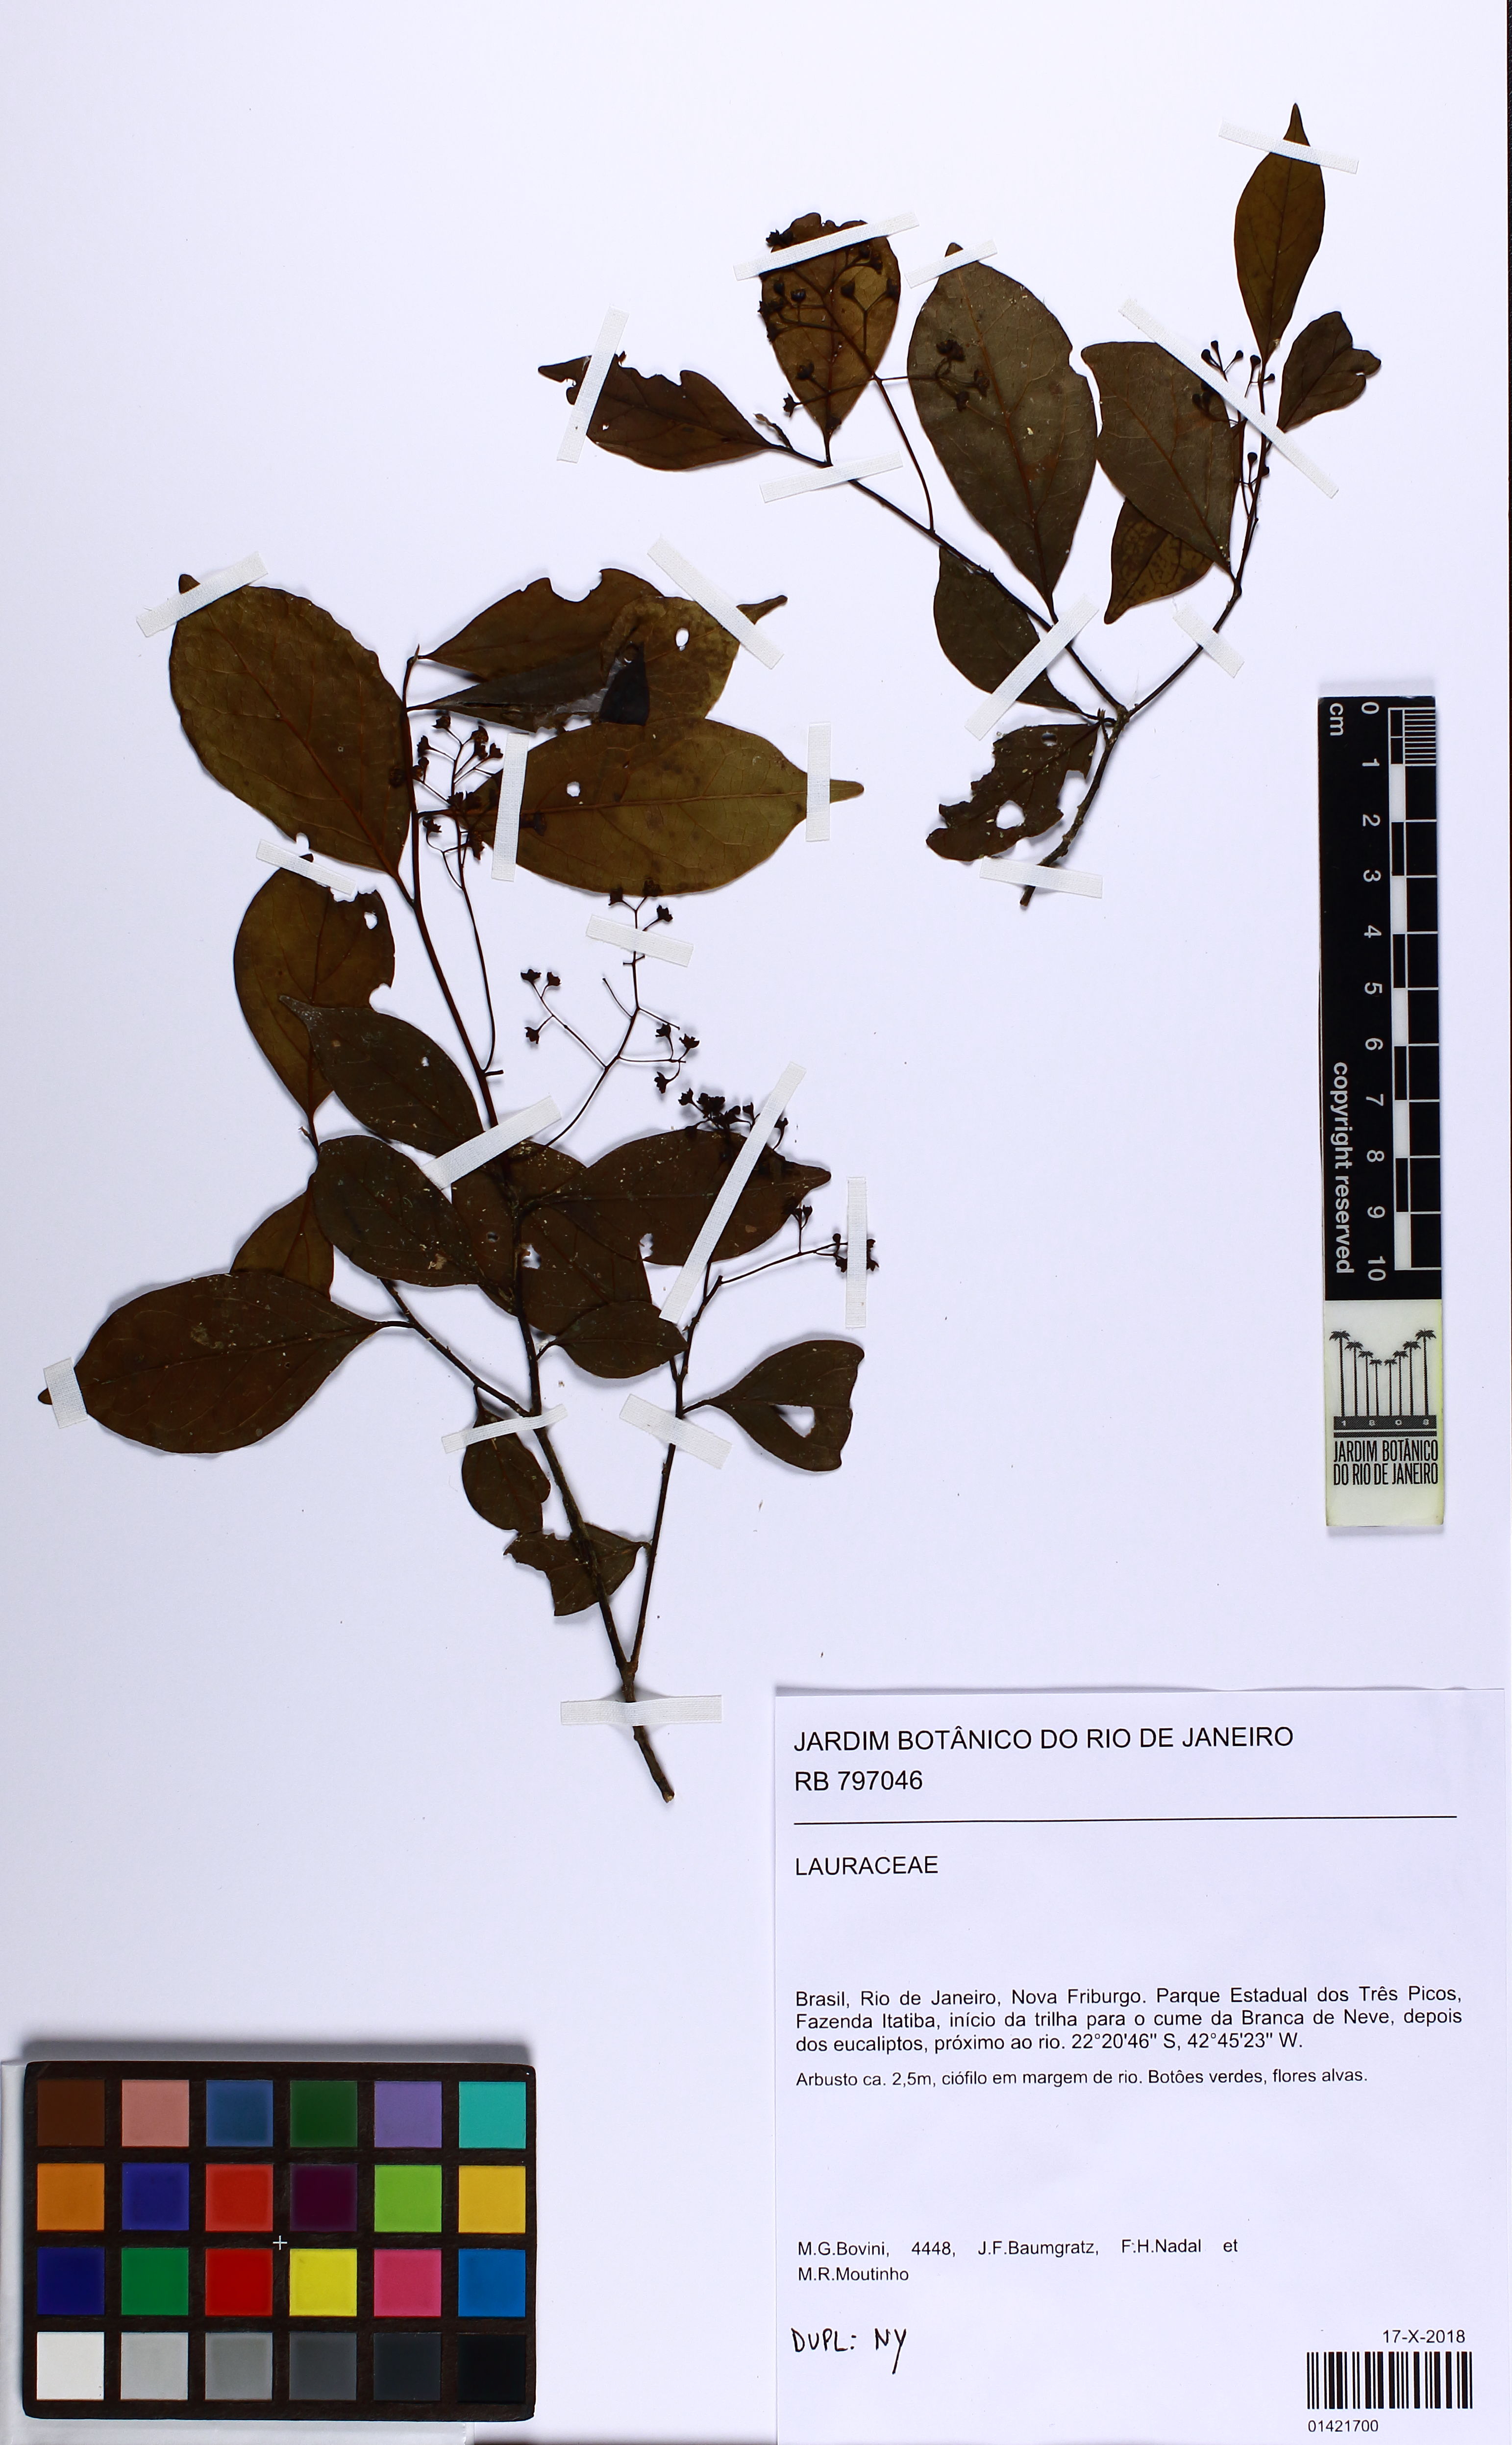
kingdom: Plantae
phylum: Tracheophyta
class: Magnoliopsida
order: Laurales
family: Lauraceae
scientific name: Lauraceae
